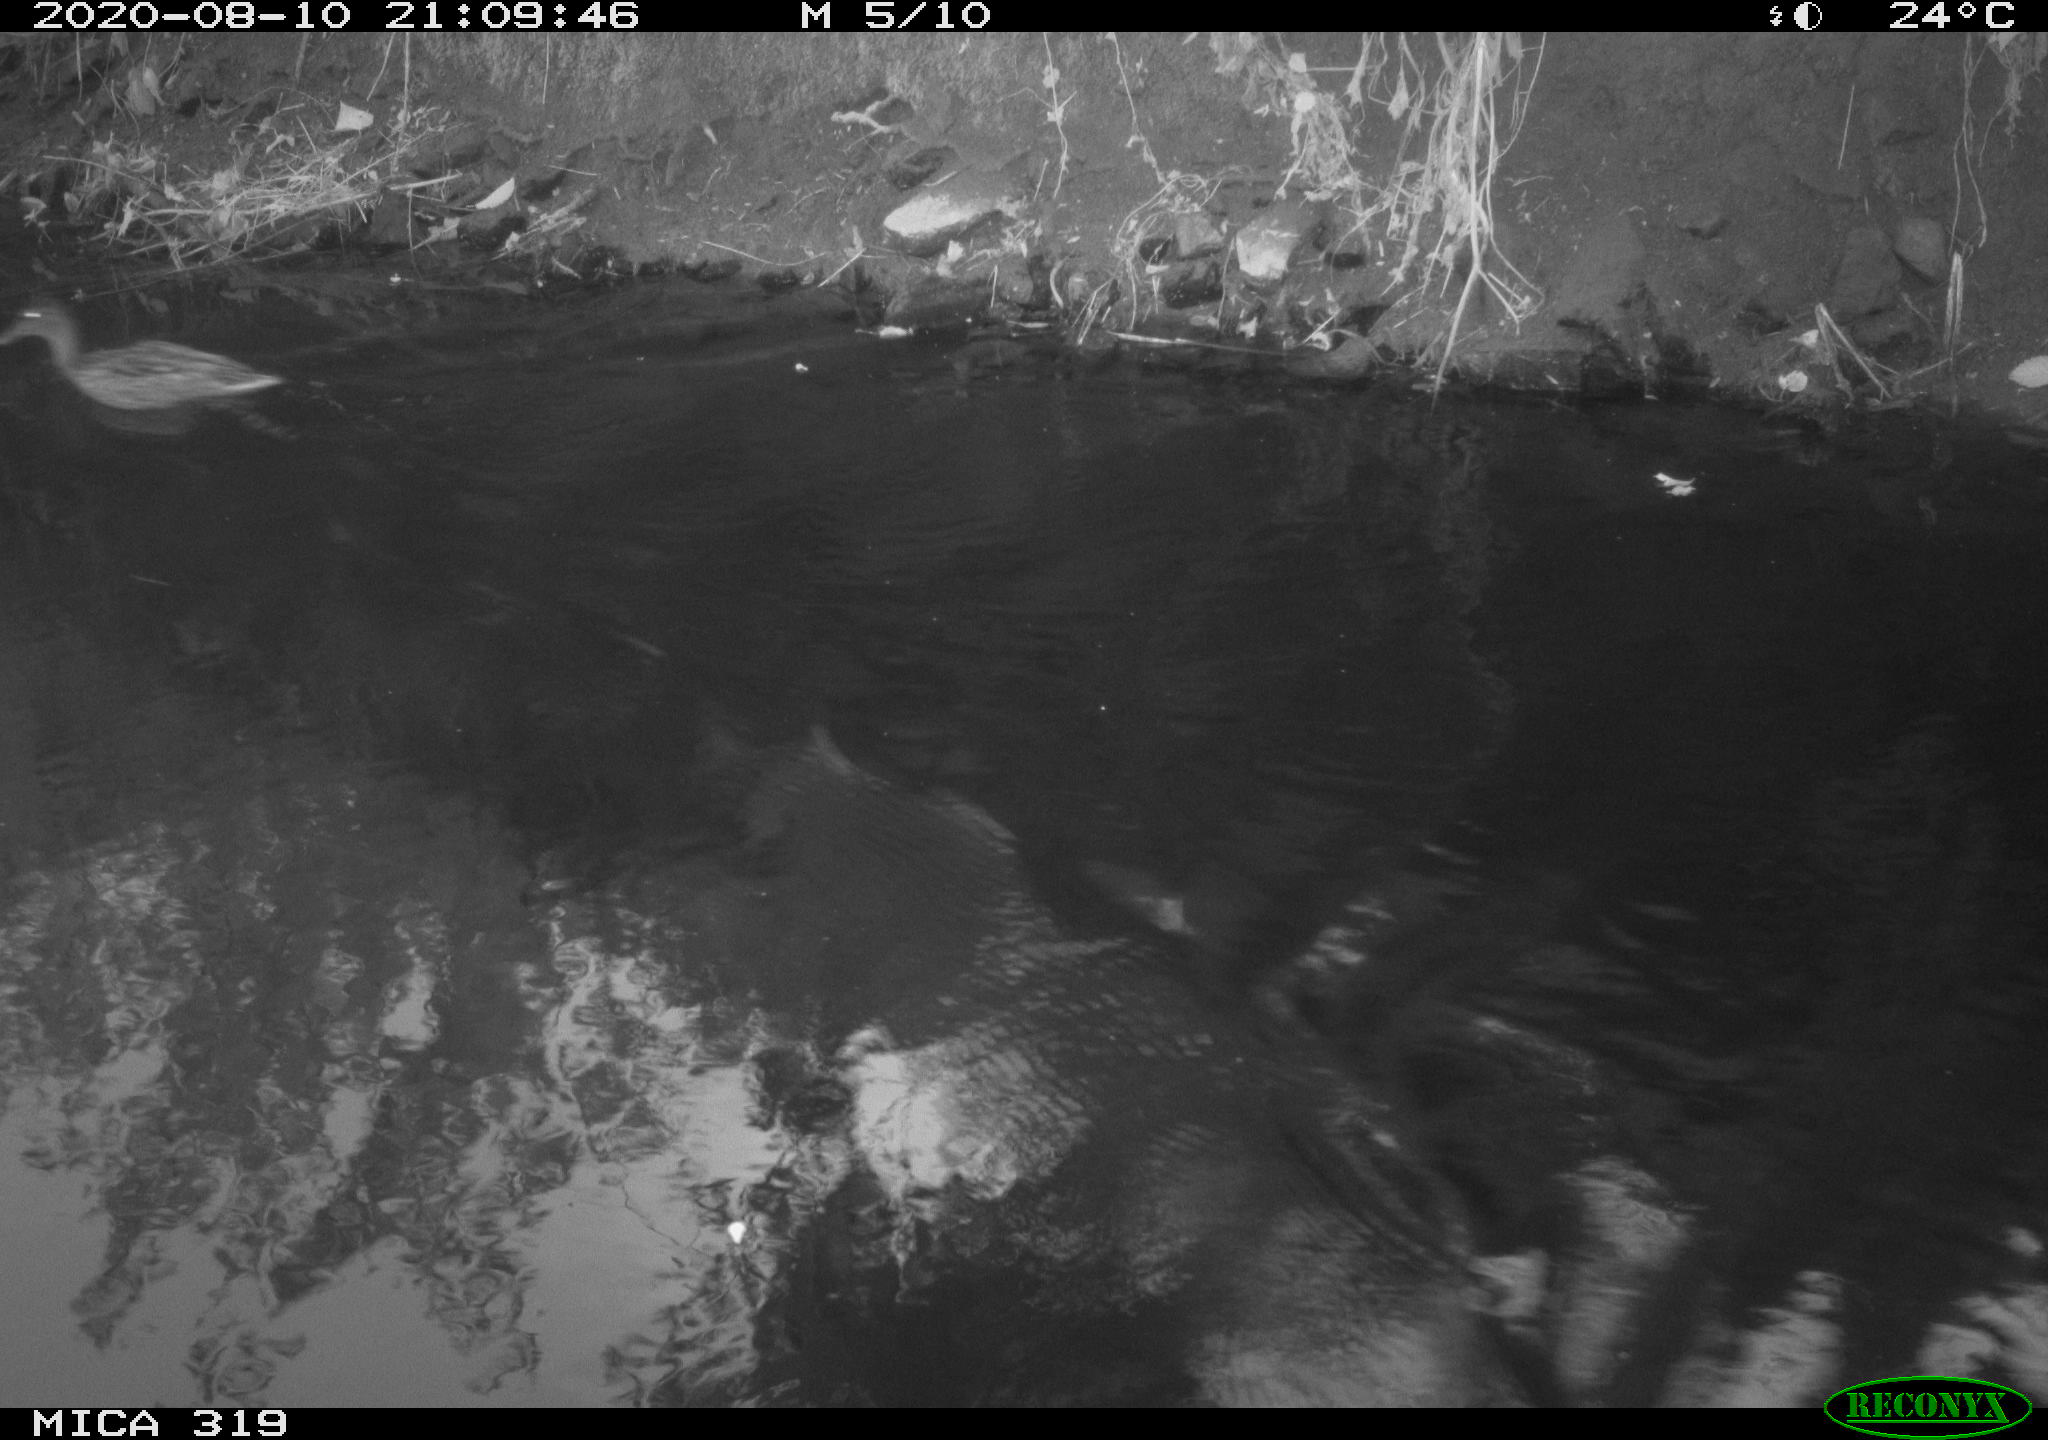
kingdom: Animalia
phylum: Chordata
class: Aves
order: Anseriformes
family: Anatidae
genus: Anas
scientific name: Anas platyrhynchos
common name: Mallard
